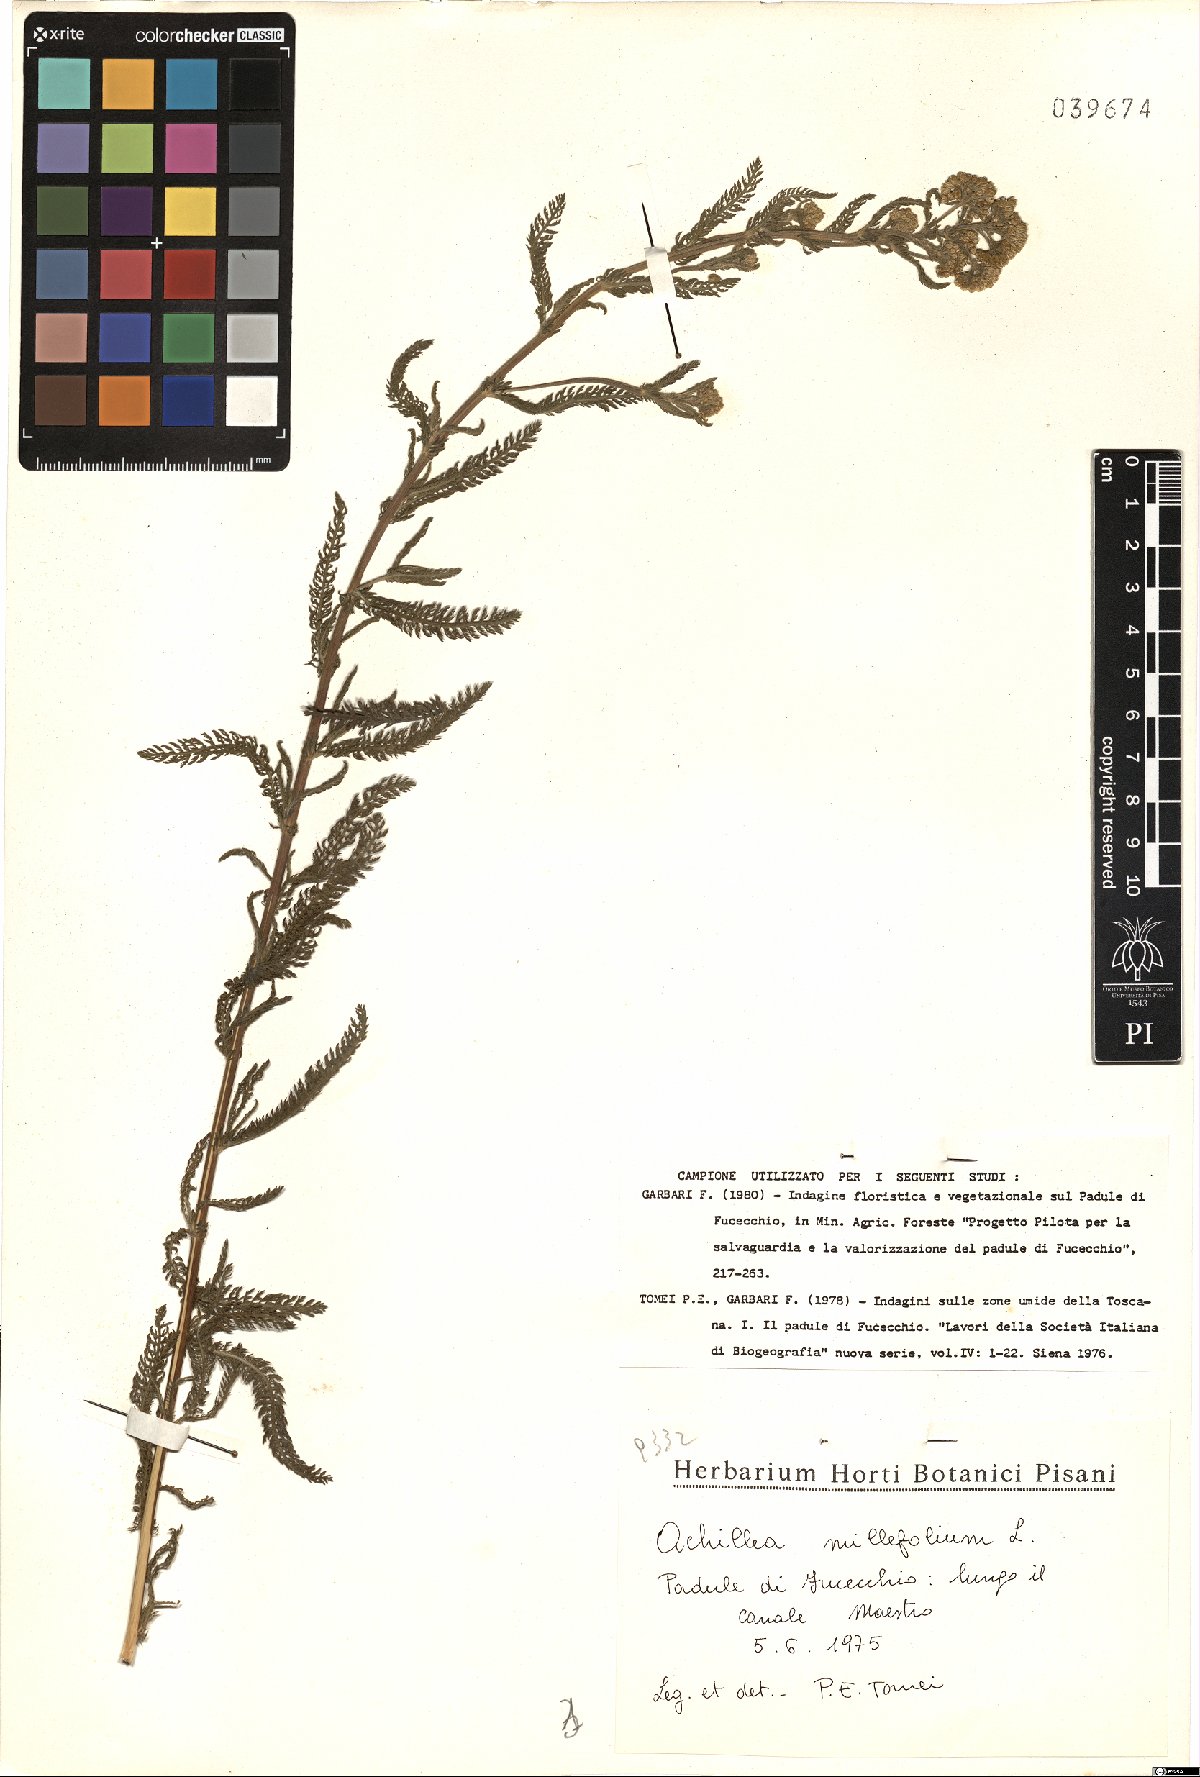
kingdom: Plantae
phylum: Tracheophyta
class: Magnoliopsida
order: Asterales
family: Asteraceae
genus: Achillea
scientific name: Achillea millefolium
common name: Yarrow
